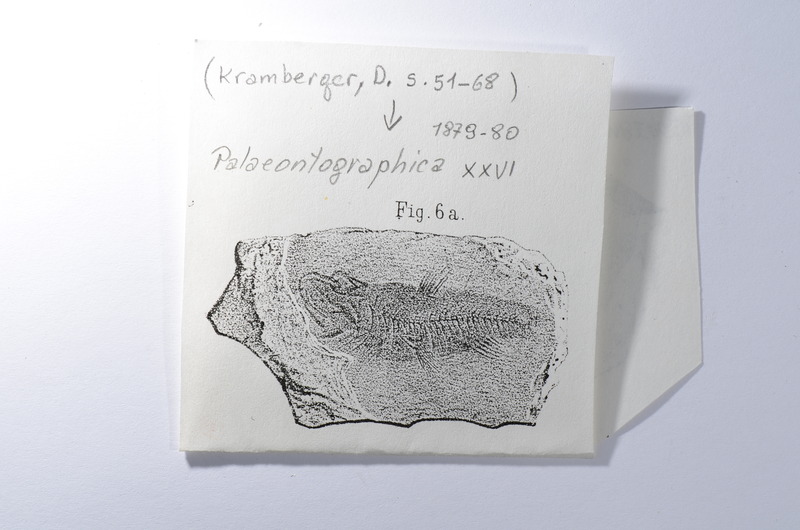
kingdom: Animalia
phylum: Chordata
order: Stomiiformes
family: Gonostomatidae
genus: Scopeloides
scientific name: Scopeloides
